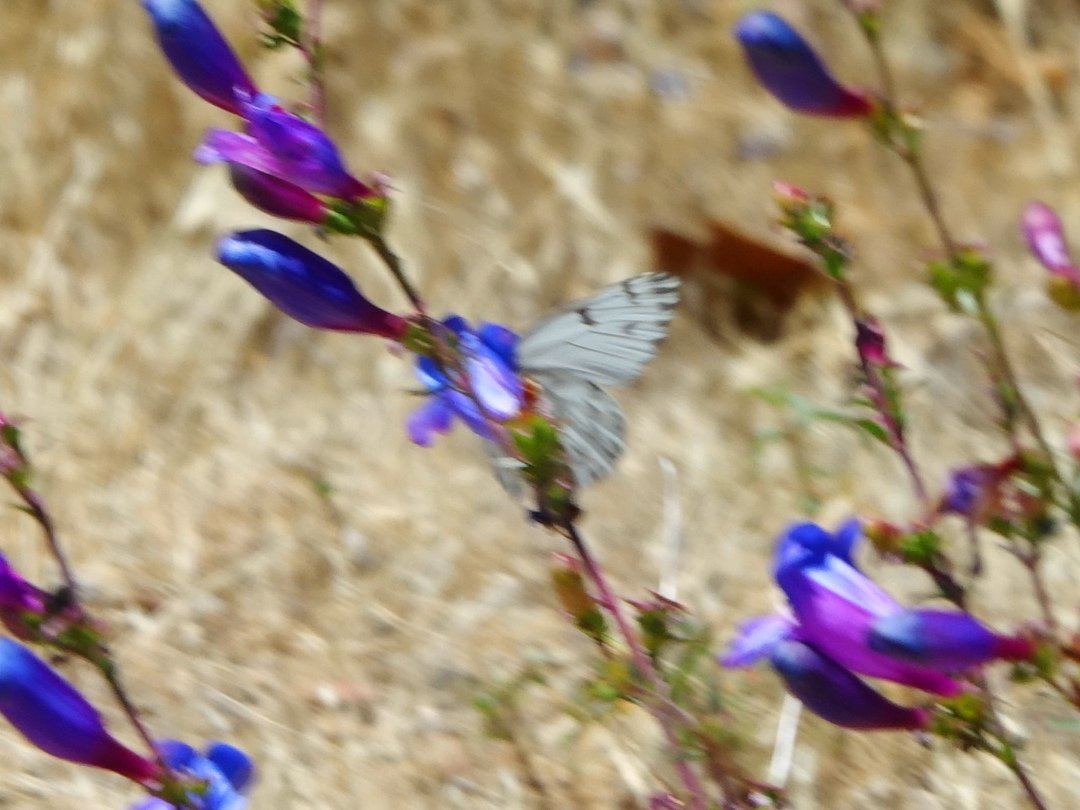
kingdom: Animalia
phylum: Arthropoda
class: Insecta
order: Lepidoptera
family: Pieridae
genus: Pontia
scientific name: Pontia sisymbrii
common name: Spring White
